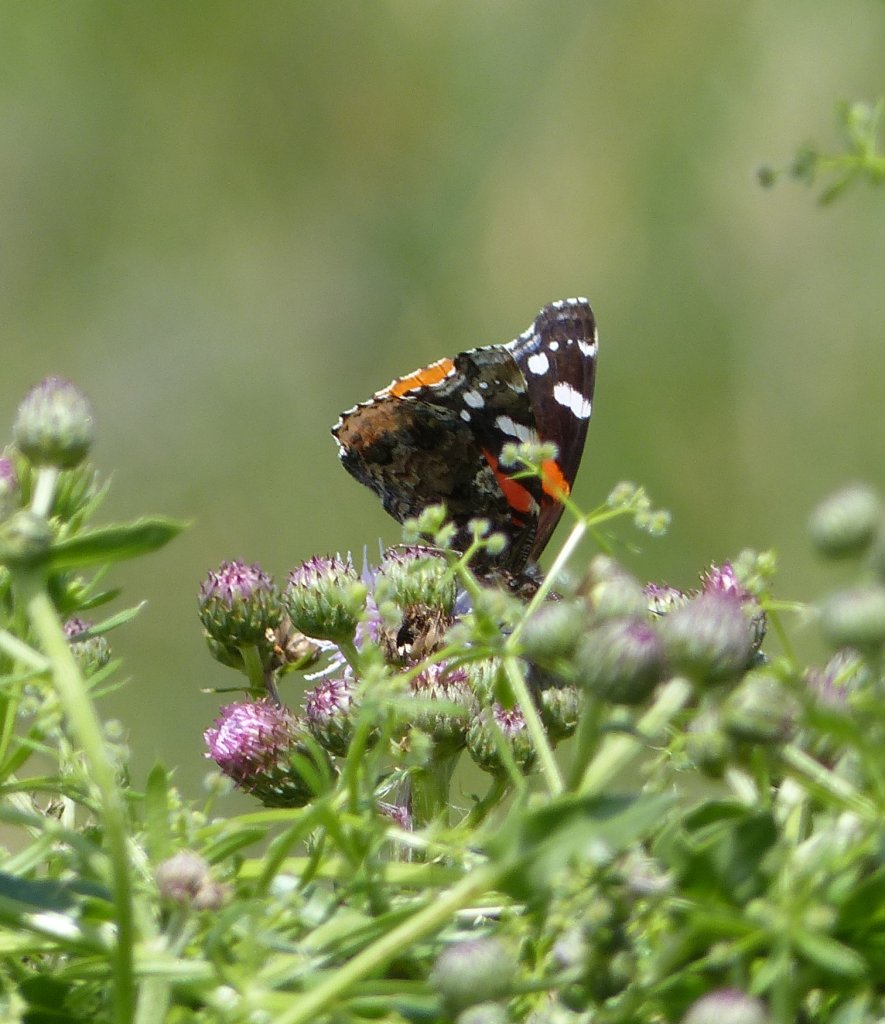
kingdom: Animalia
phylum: Arthropoda
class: Insecta
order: Lepidoptera
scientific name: Lepidoptera
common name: Butterflies
